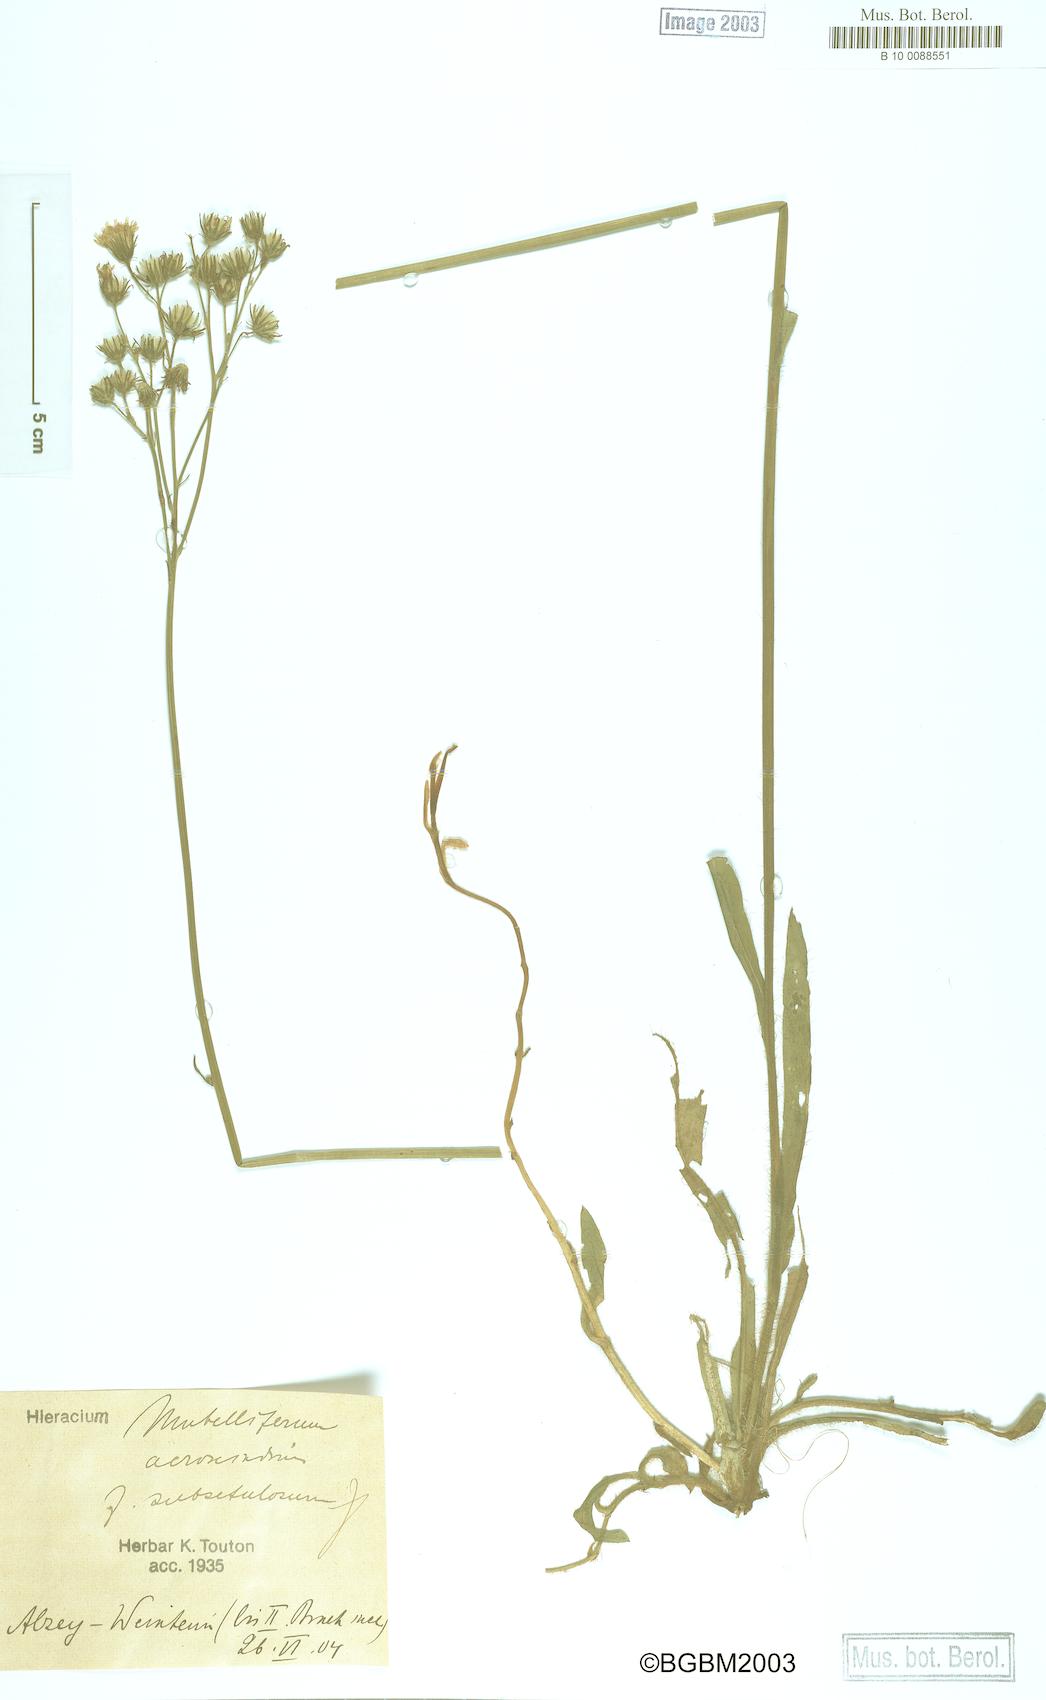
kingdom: Plantae
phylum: Tracheophyta
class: Magnoliopsida
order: Asterales
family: Asteraceae
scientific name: Asteraceae
